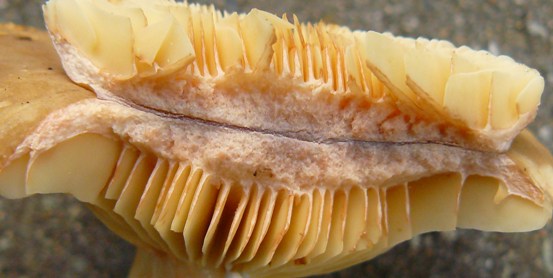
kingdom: Fungi
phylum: Basidiomycota
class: Agaricomycetes
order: Russulales
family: Russulaceae
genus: Lactarius
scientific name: Lactarius ruginosus
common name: gråbrun mælkehat
